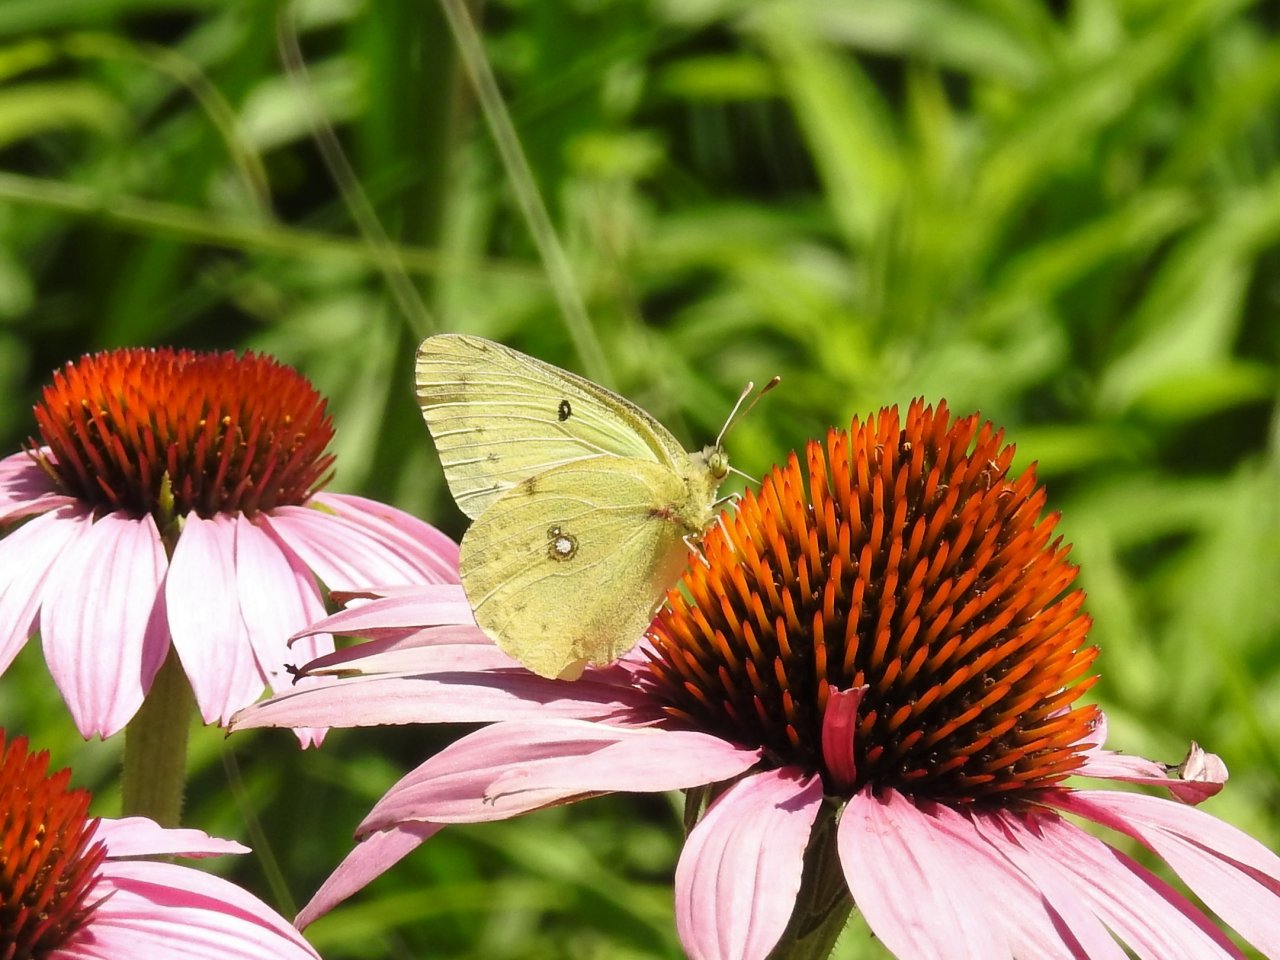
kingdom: Animalia
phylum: Arthropoda
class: Insecta
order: Lepidoptera
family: Pieridae
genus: Colias
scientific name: Colias philodice
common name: Clouded Sulphur
